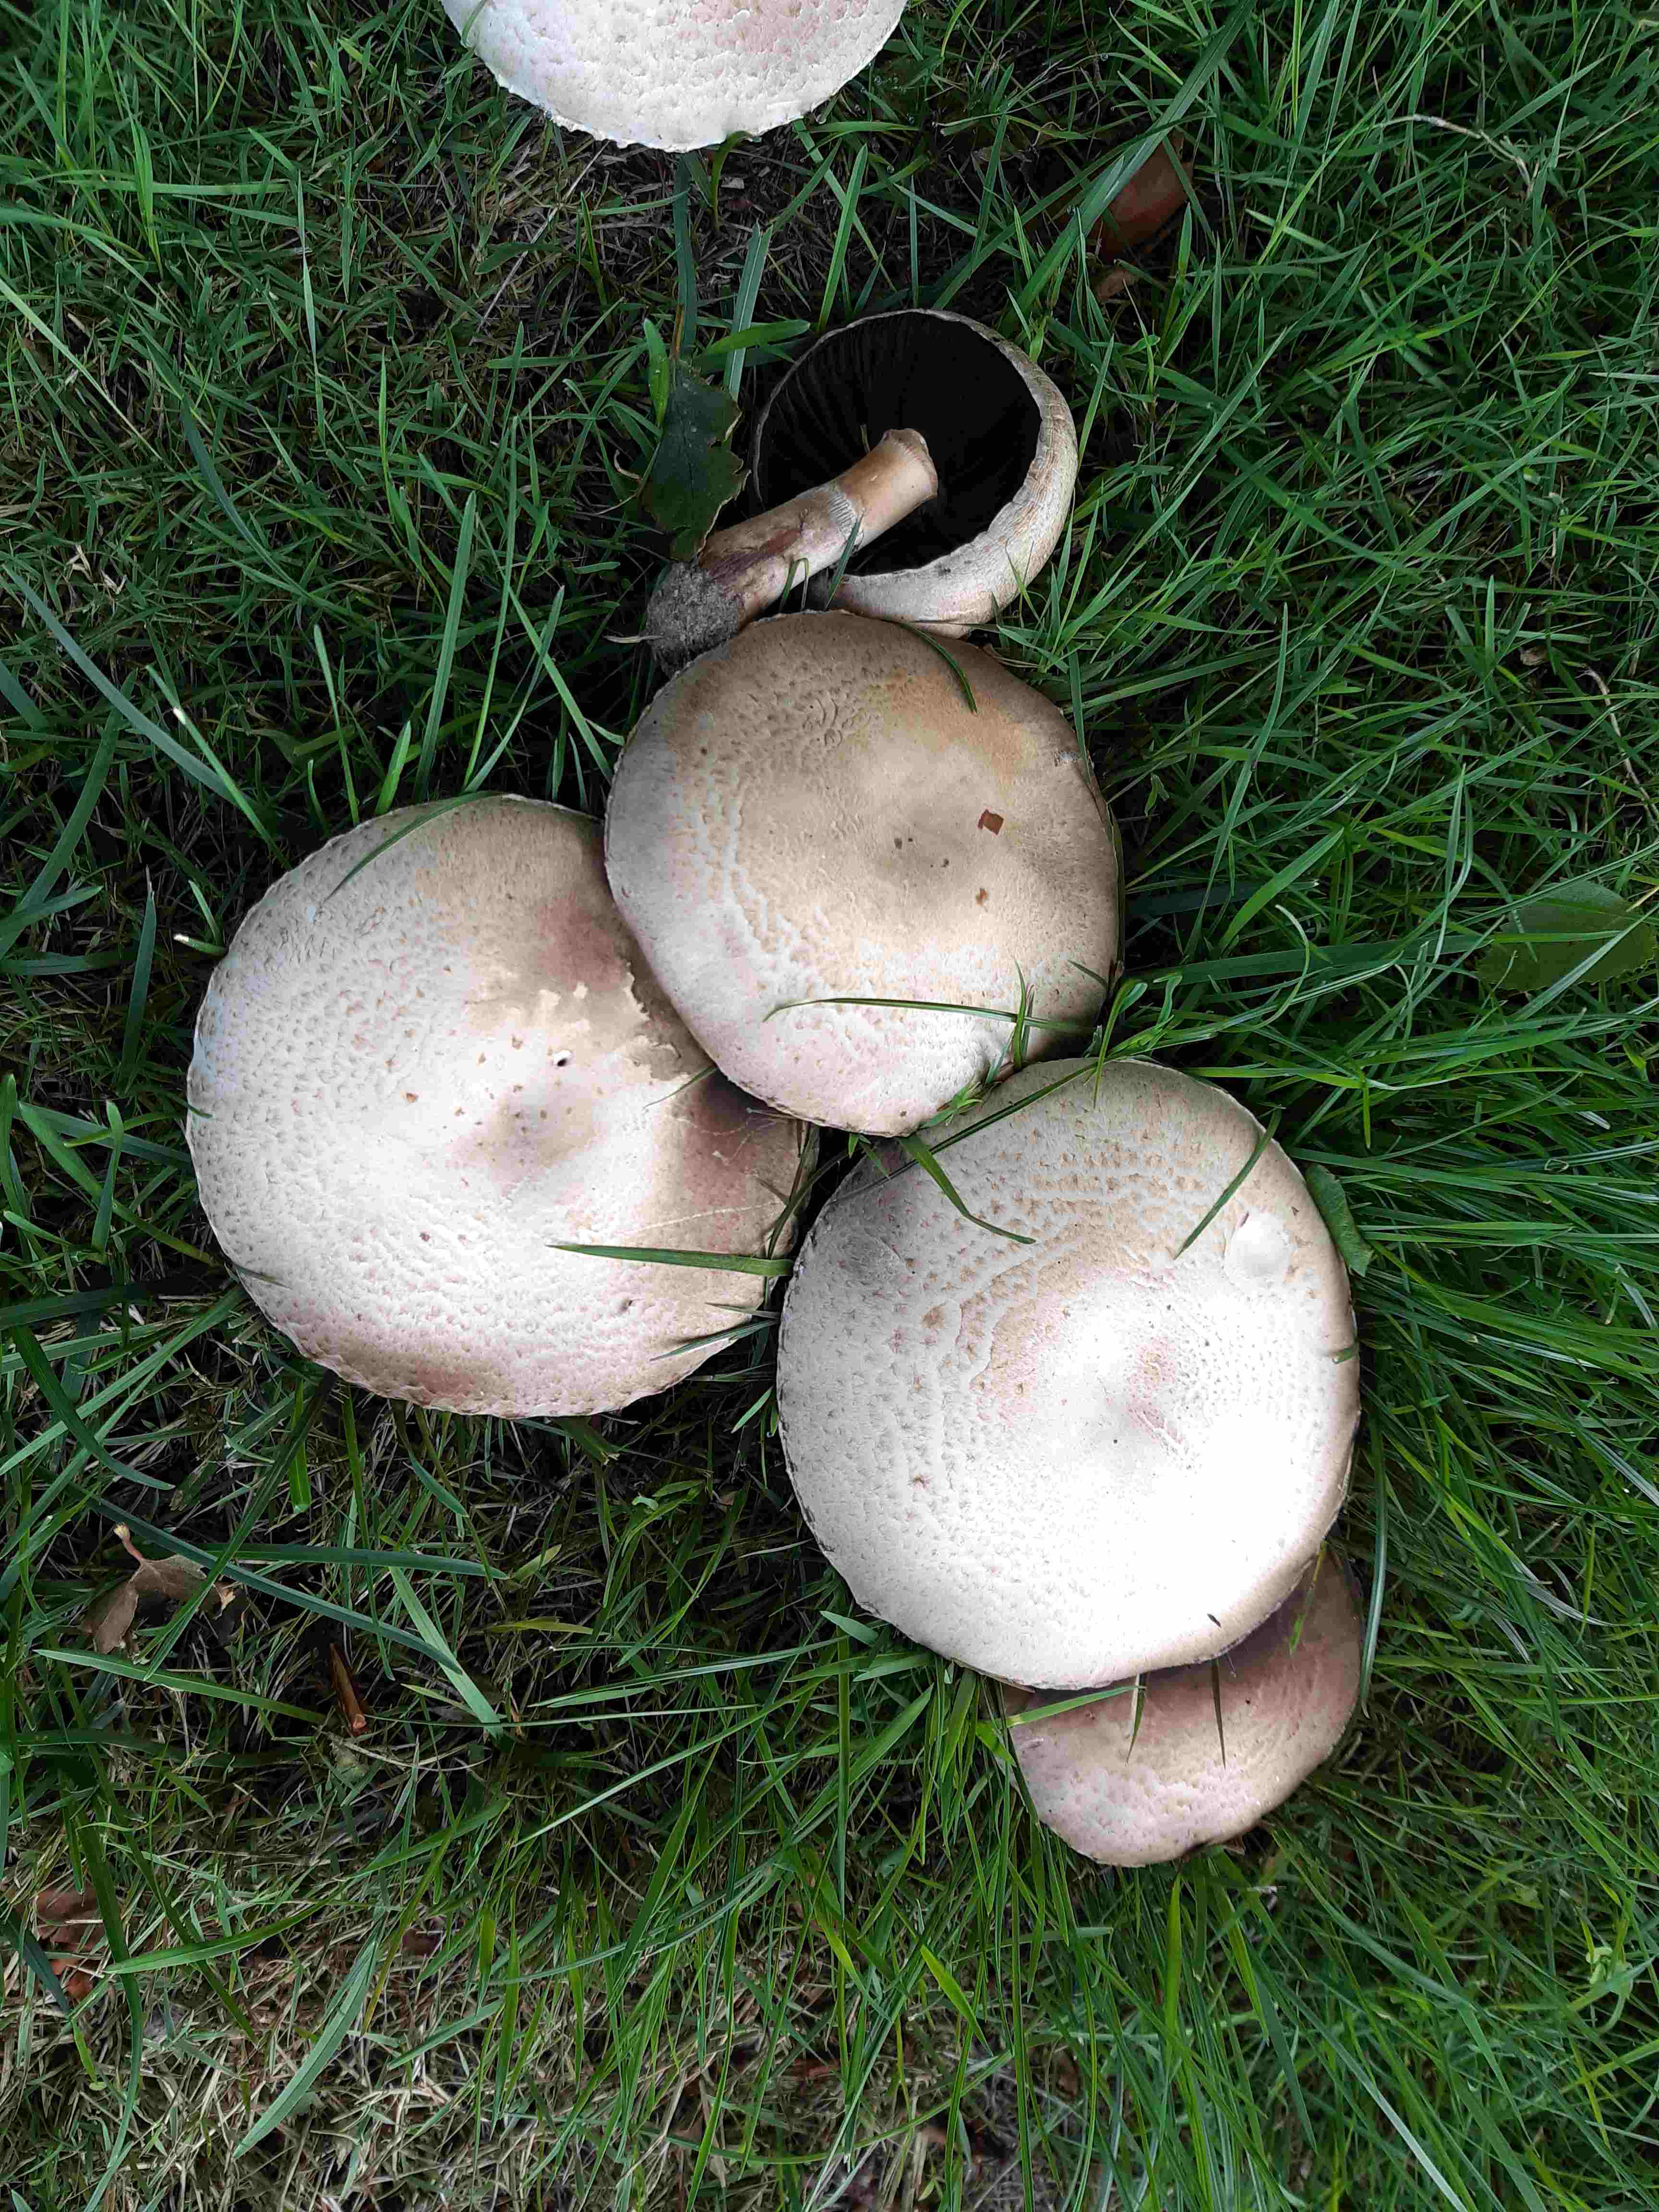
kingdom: Fungi
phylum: Basidiomycota
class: Agaricomycetes
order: Agaricales
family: Agaricaceae
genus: Agaricus
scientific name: Agaricus
